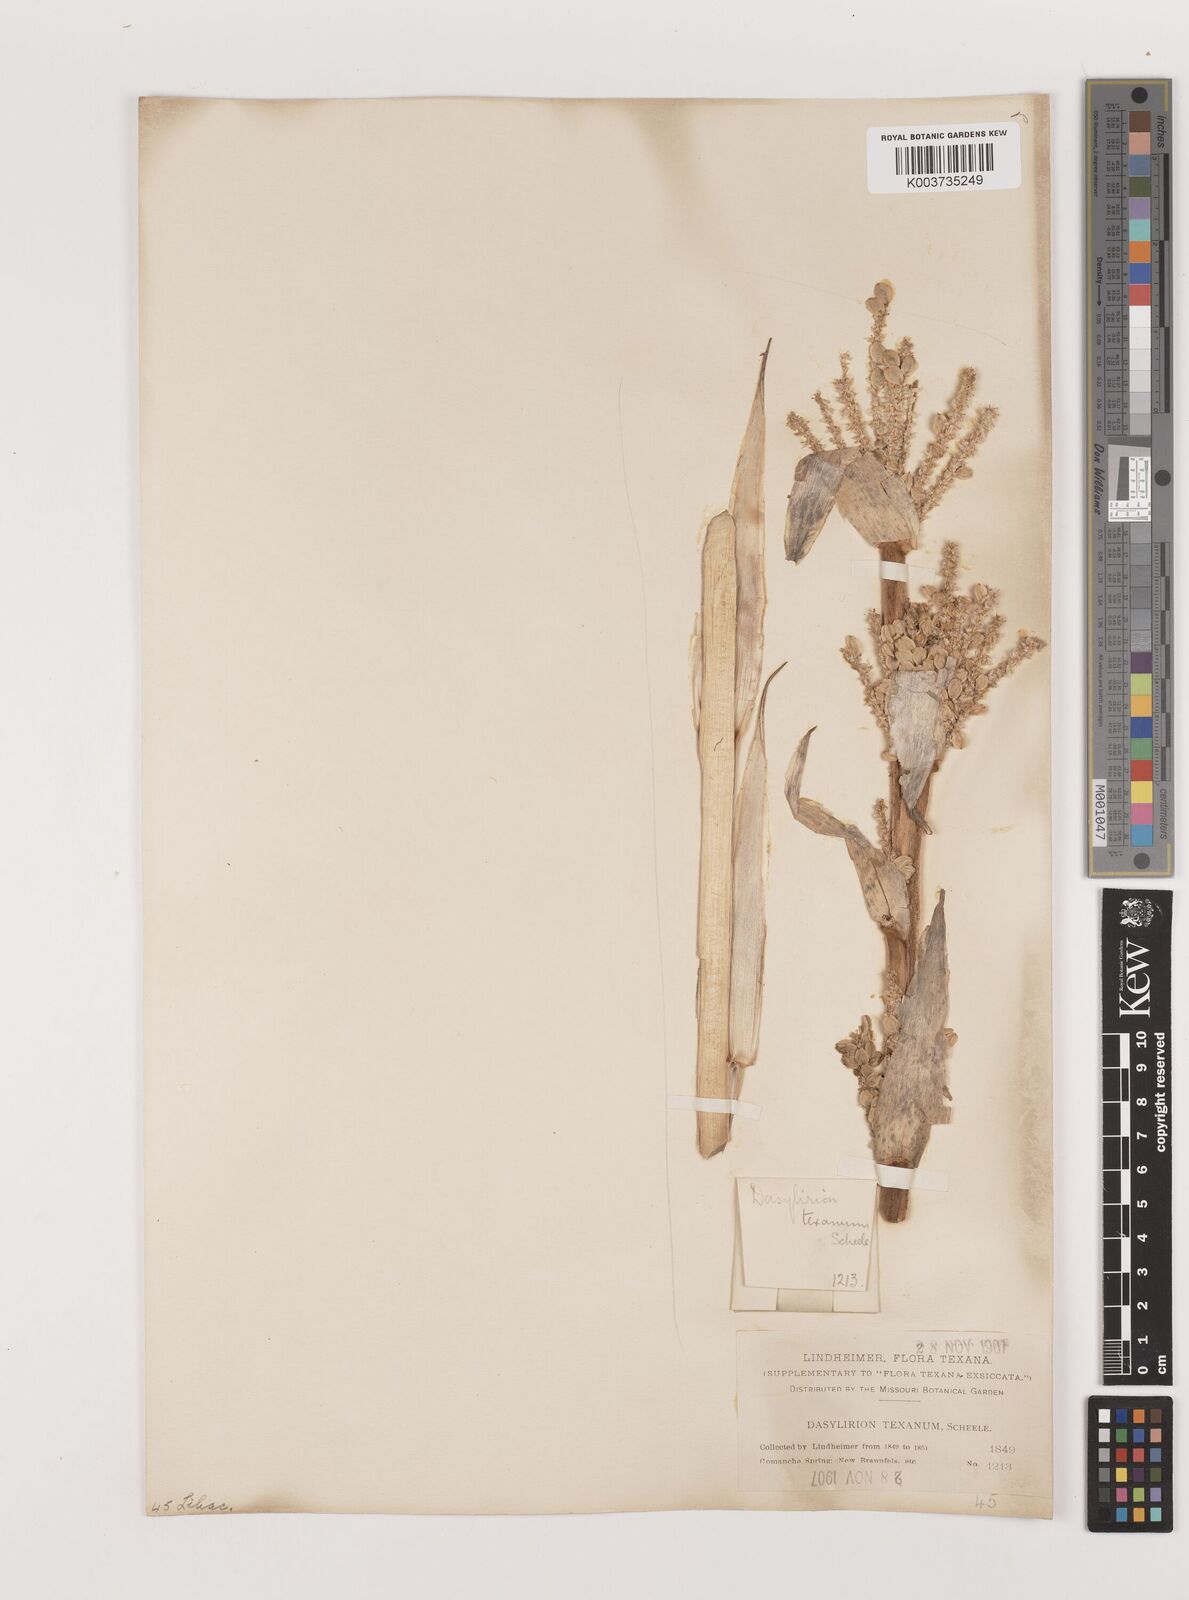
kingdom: Plantae
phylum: Tracheophyta
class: Liliopsida
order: Asparagales
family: Asparagaceae
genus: Dasylirion
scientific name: Dasylirion texanum
